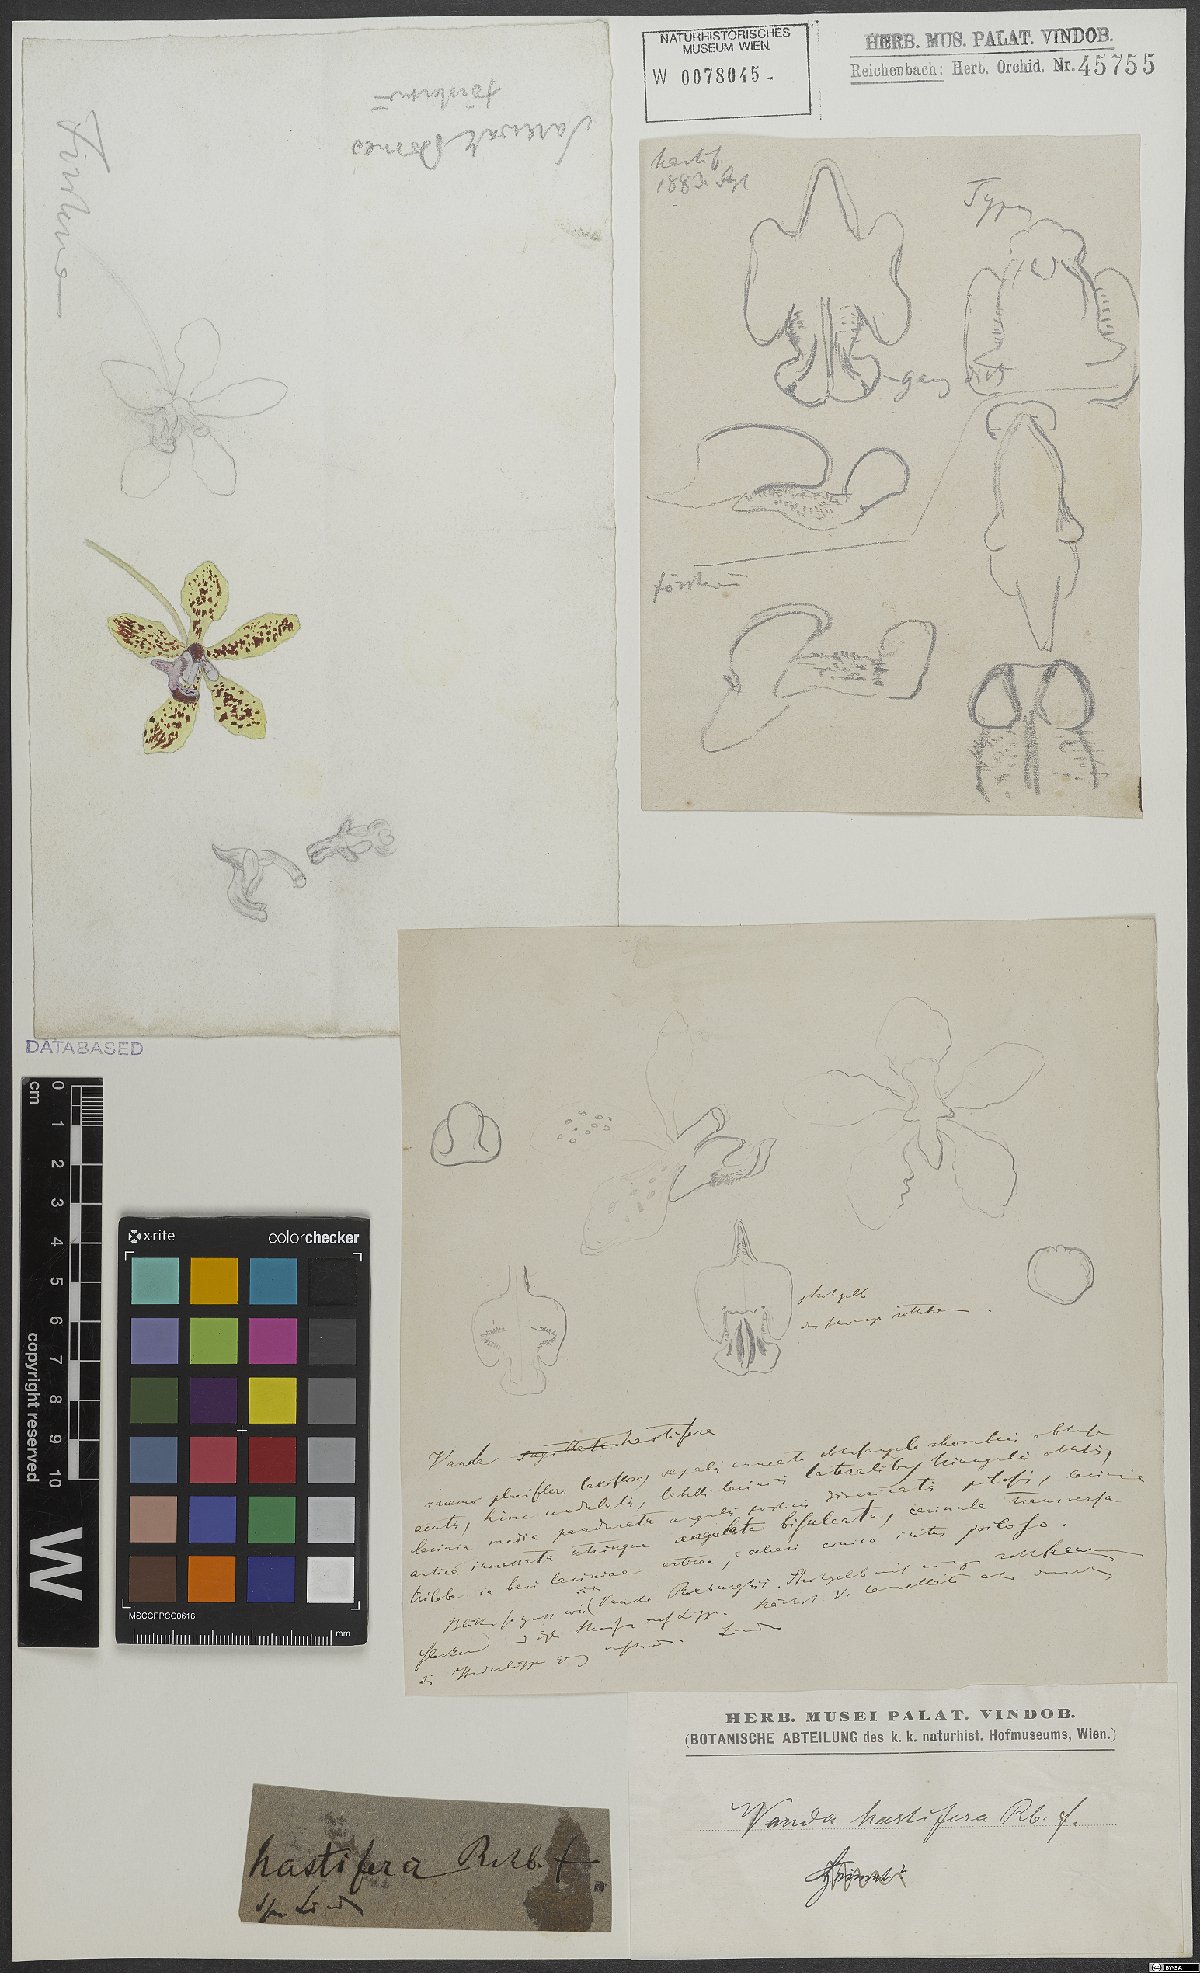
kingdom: Plantae
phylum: Tracheophyta
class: Liliopsida
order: Asparagales
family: Orchidaceae
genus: Vanda
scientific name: Vanda hastifera
